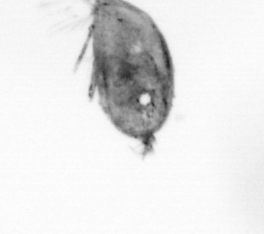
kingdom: Animalia
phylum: Arthropoda
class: Maxillopoda
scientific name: Maxillopoda
